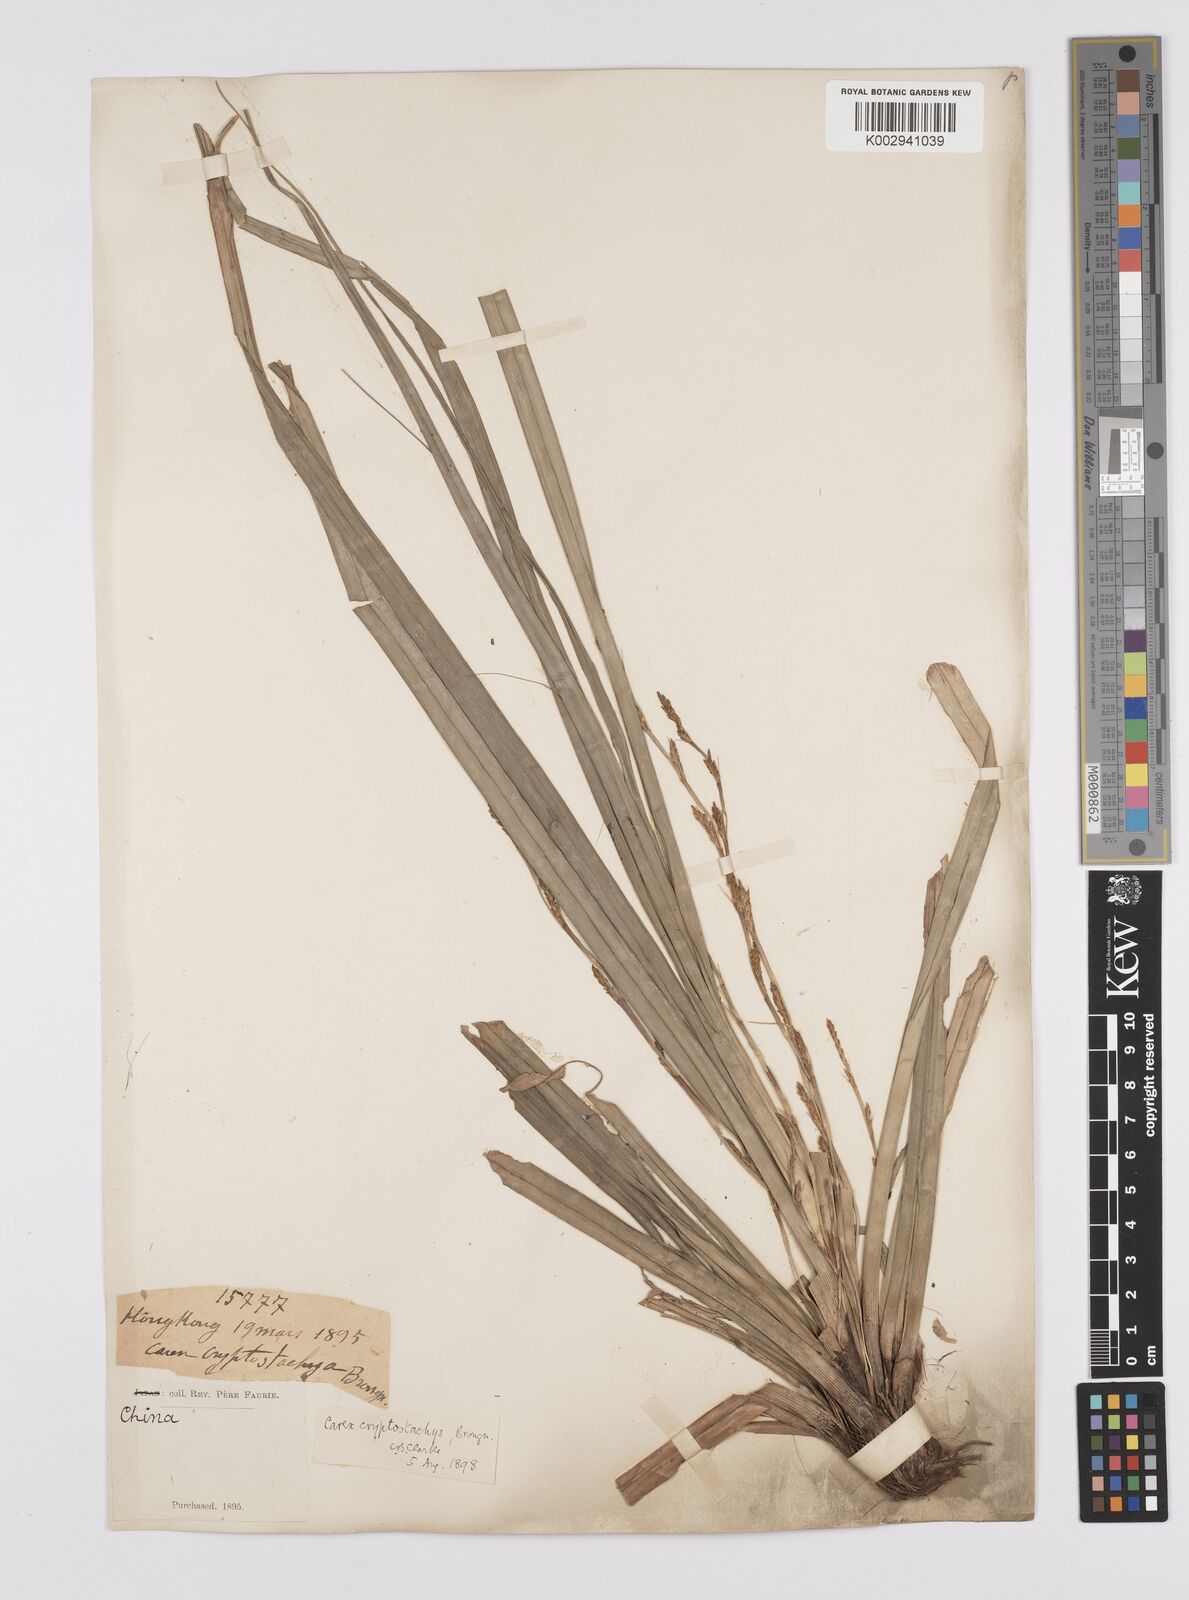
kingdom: Plantae
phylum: Tracheophyta
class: Liliopsida
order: Poales
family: Cyperaceae
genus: Carex
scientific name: Carex cryptostachys
